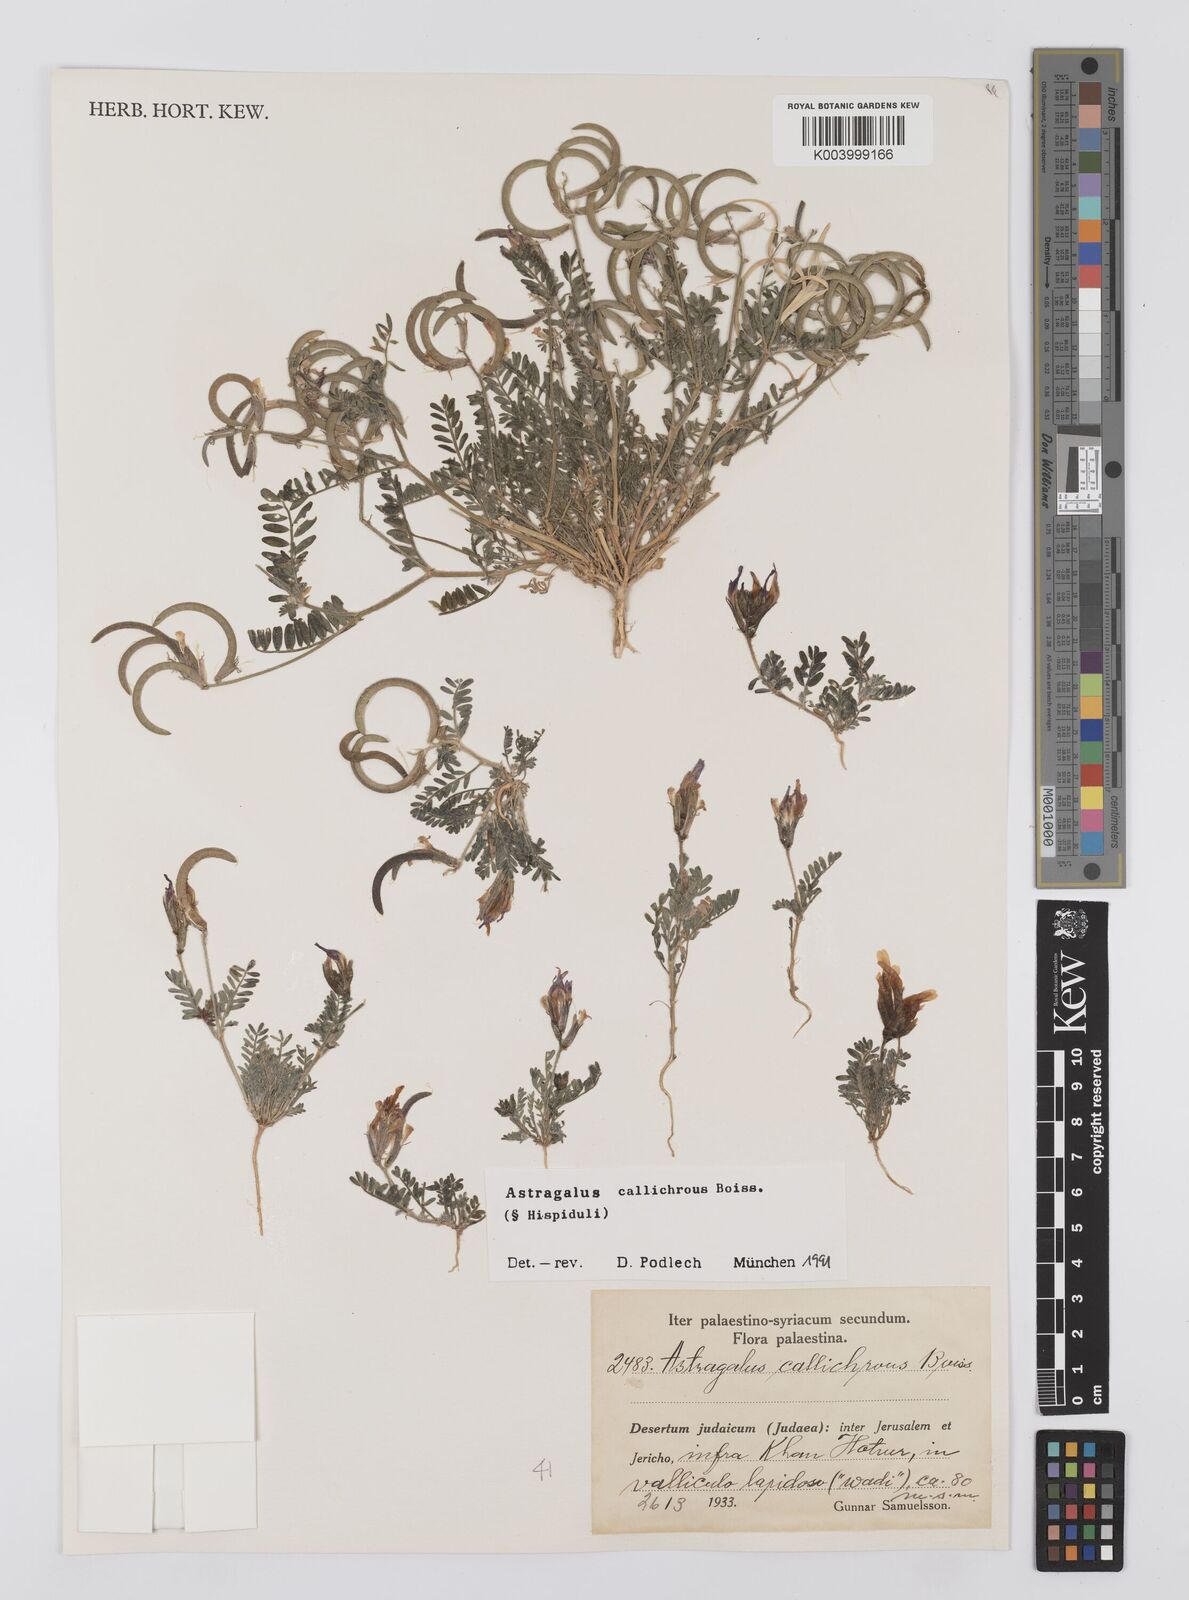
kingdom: Plantae
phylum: Tracheophyta
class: Magnoliopsida
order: Fabales
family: Fabaceae
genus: Astragalus
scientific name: Astragalus callichrous
